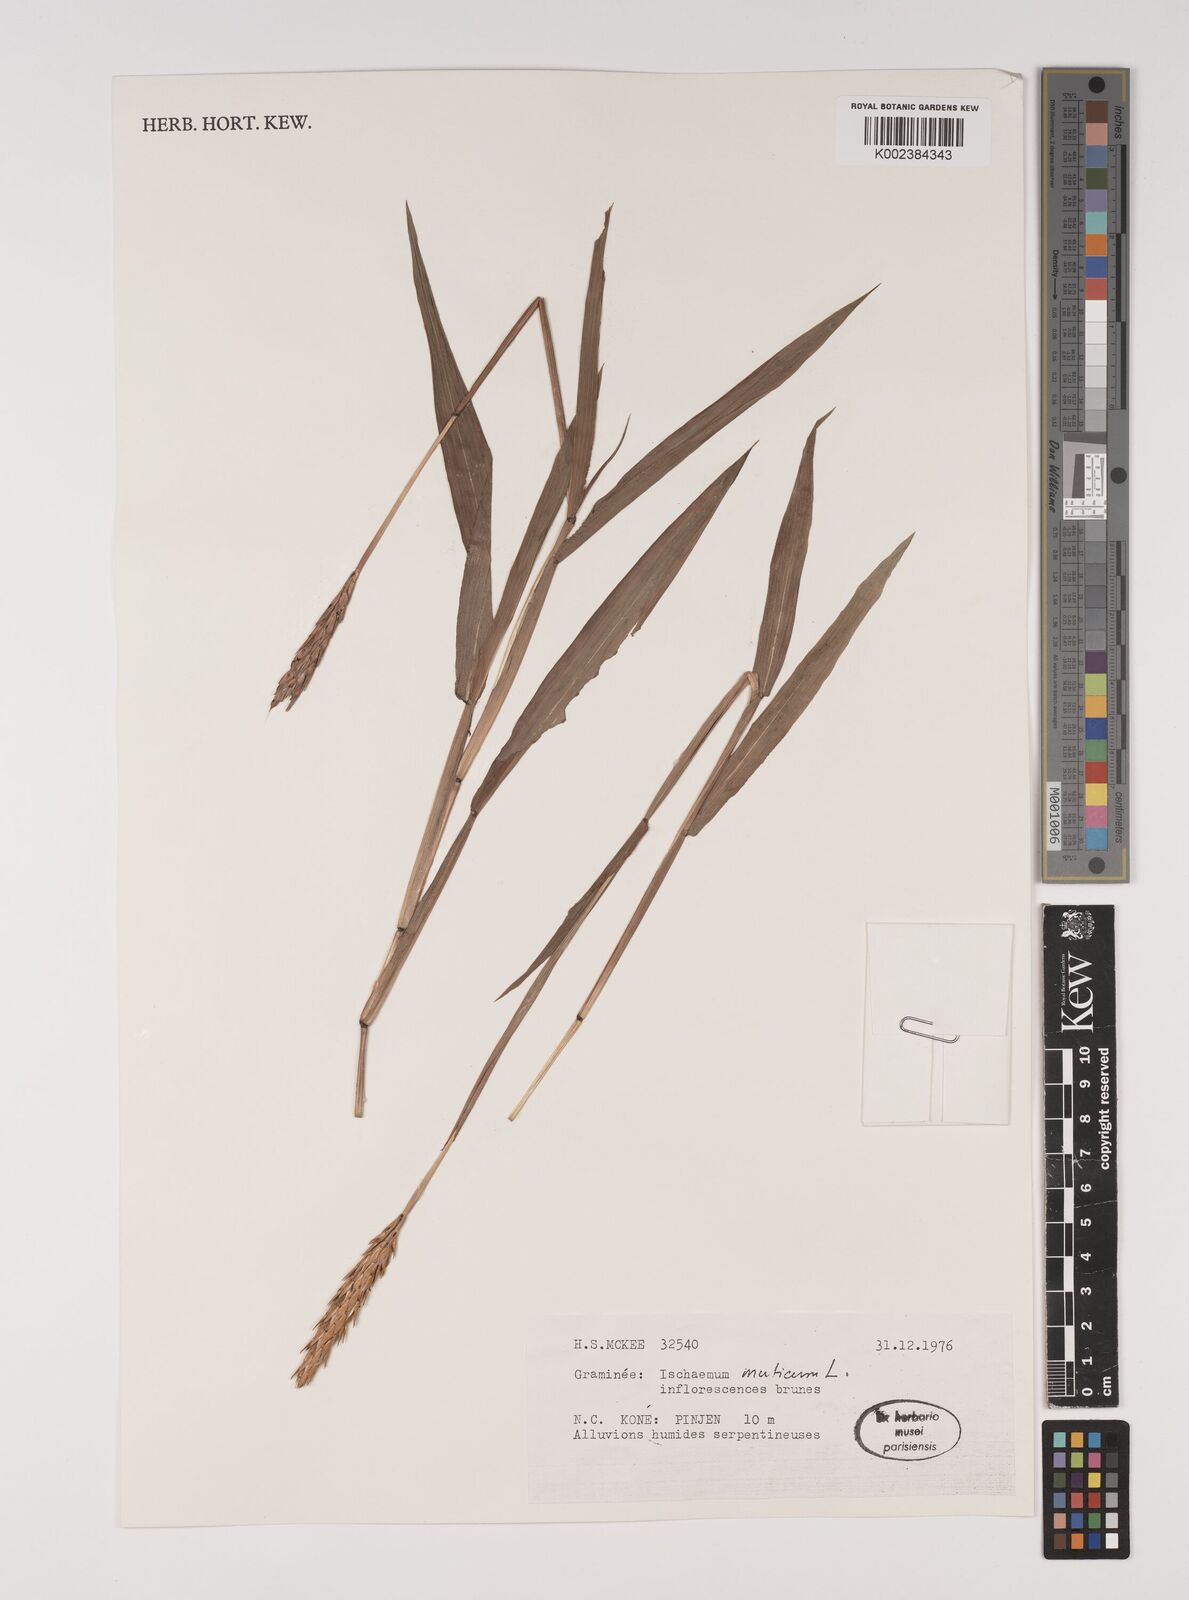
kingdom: Plantae
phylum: Tracheophyta
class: Liliopsida
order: Poales
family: Poaceae
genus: Ischaemum
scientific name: Ischaemum muticum
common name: Drought grass
